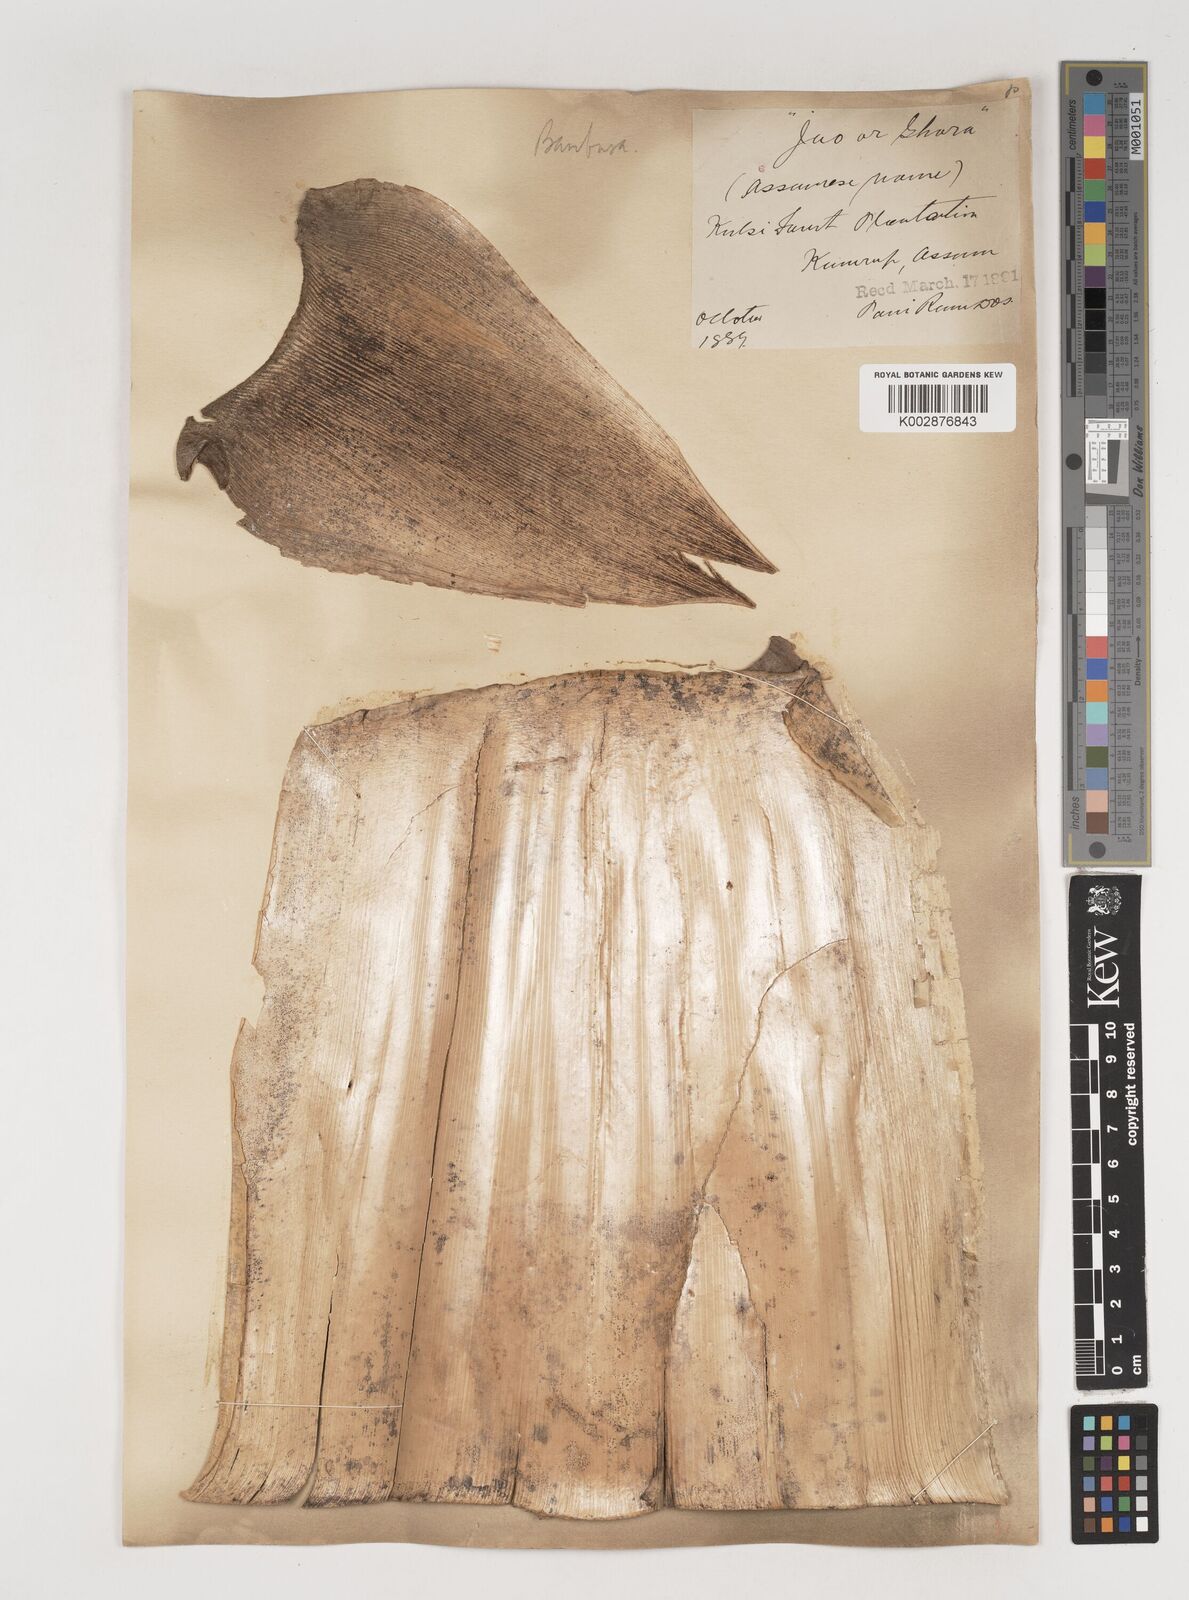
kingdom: Plantae
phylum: Tracheophyta
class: Liliopsida
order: Poales
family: Poaceae
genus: Bambusa
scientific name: Bambusa tulda
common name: Bengal bamboo
